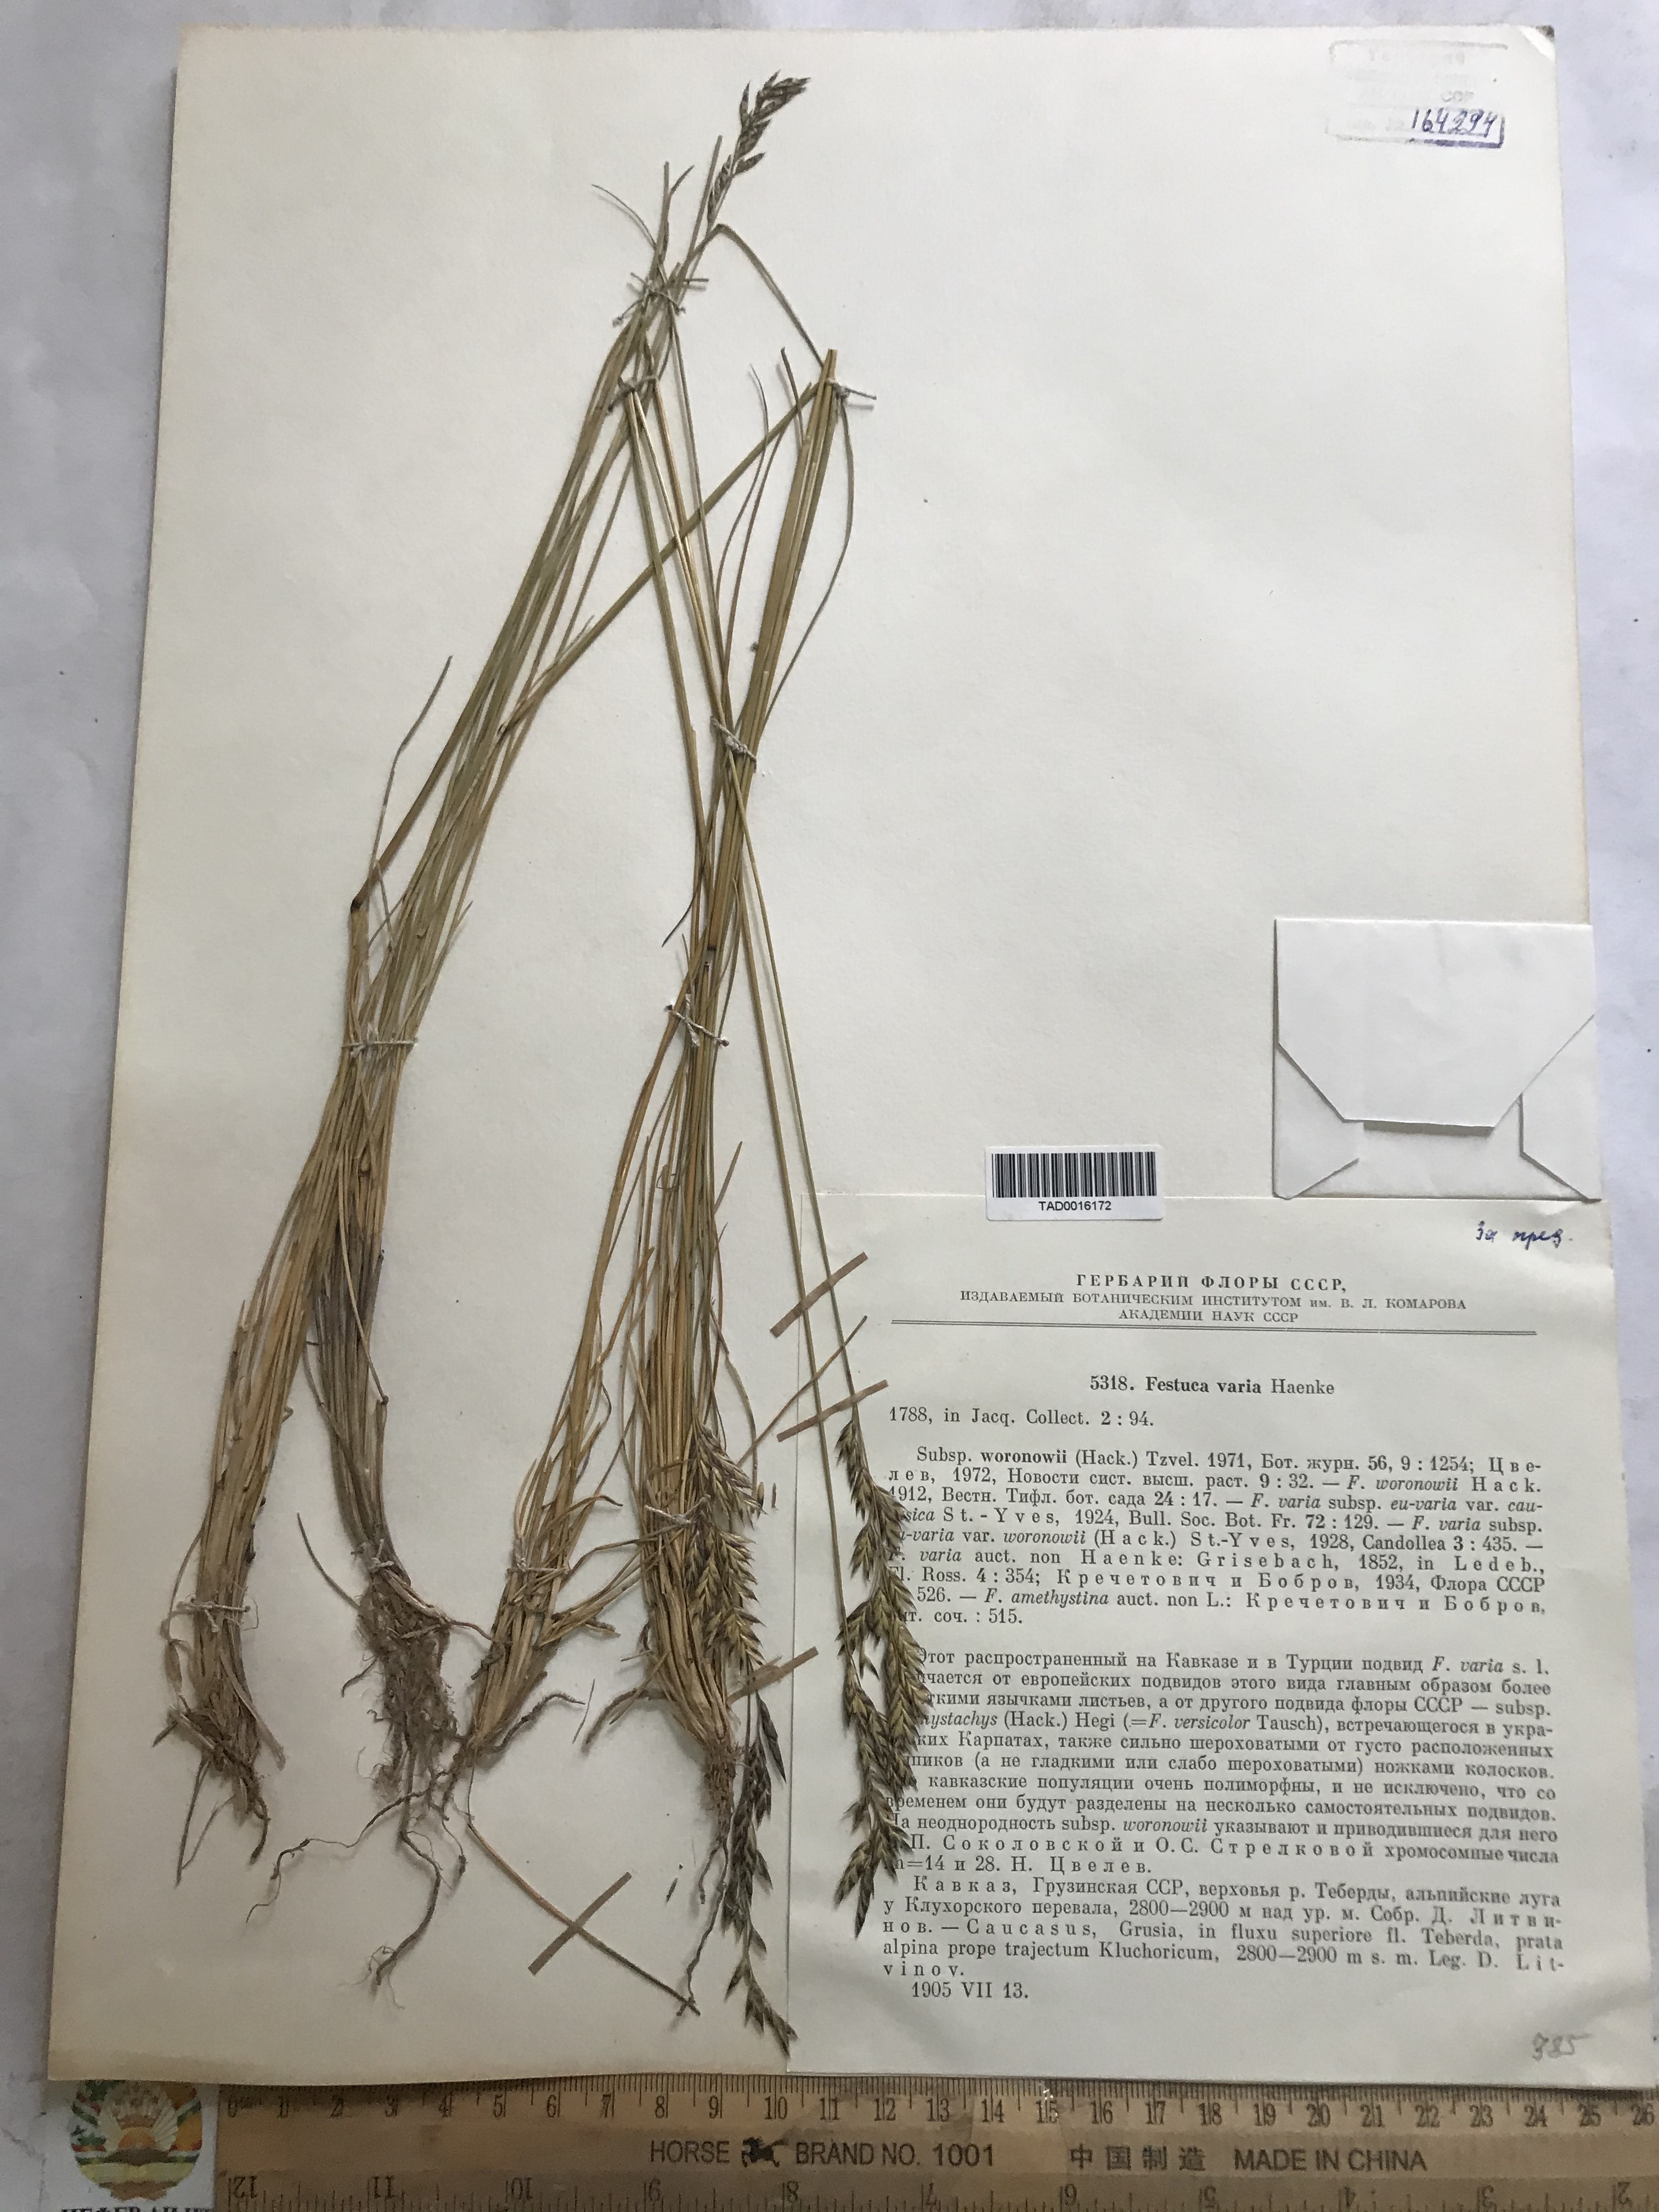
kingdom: Plantae
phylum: Tracheophyta
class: Liliopsida
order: Poales
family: Poaceae
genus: Festuca
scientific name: Festuca varia
